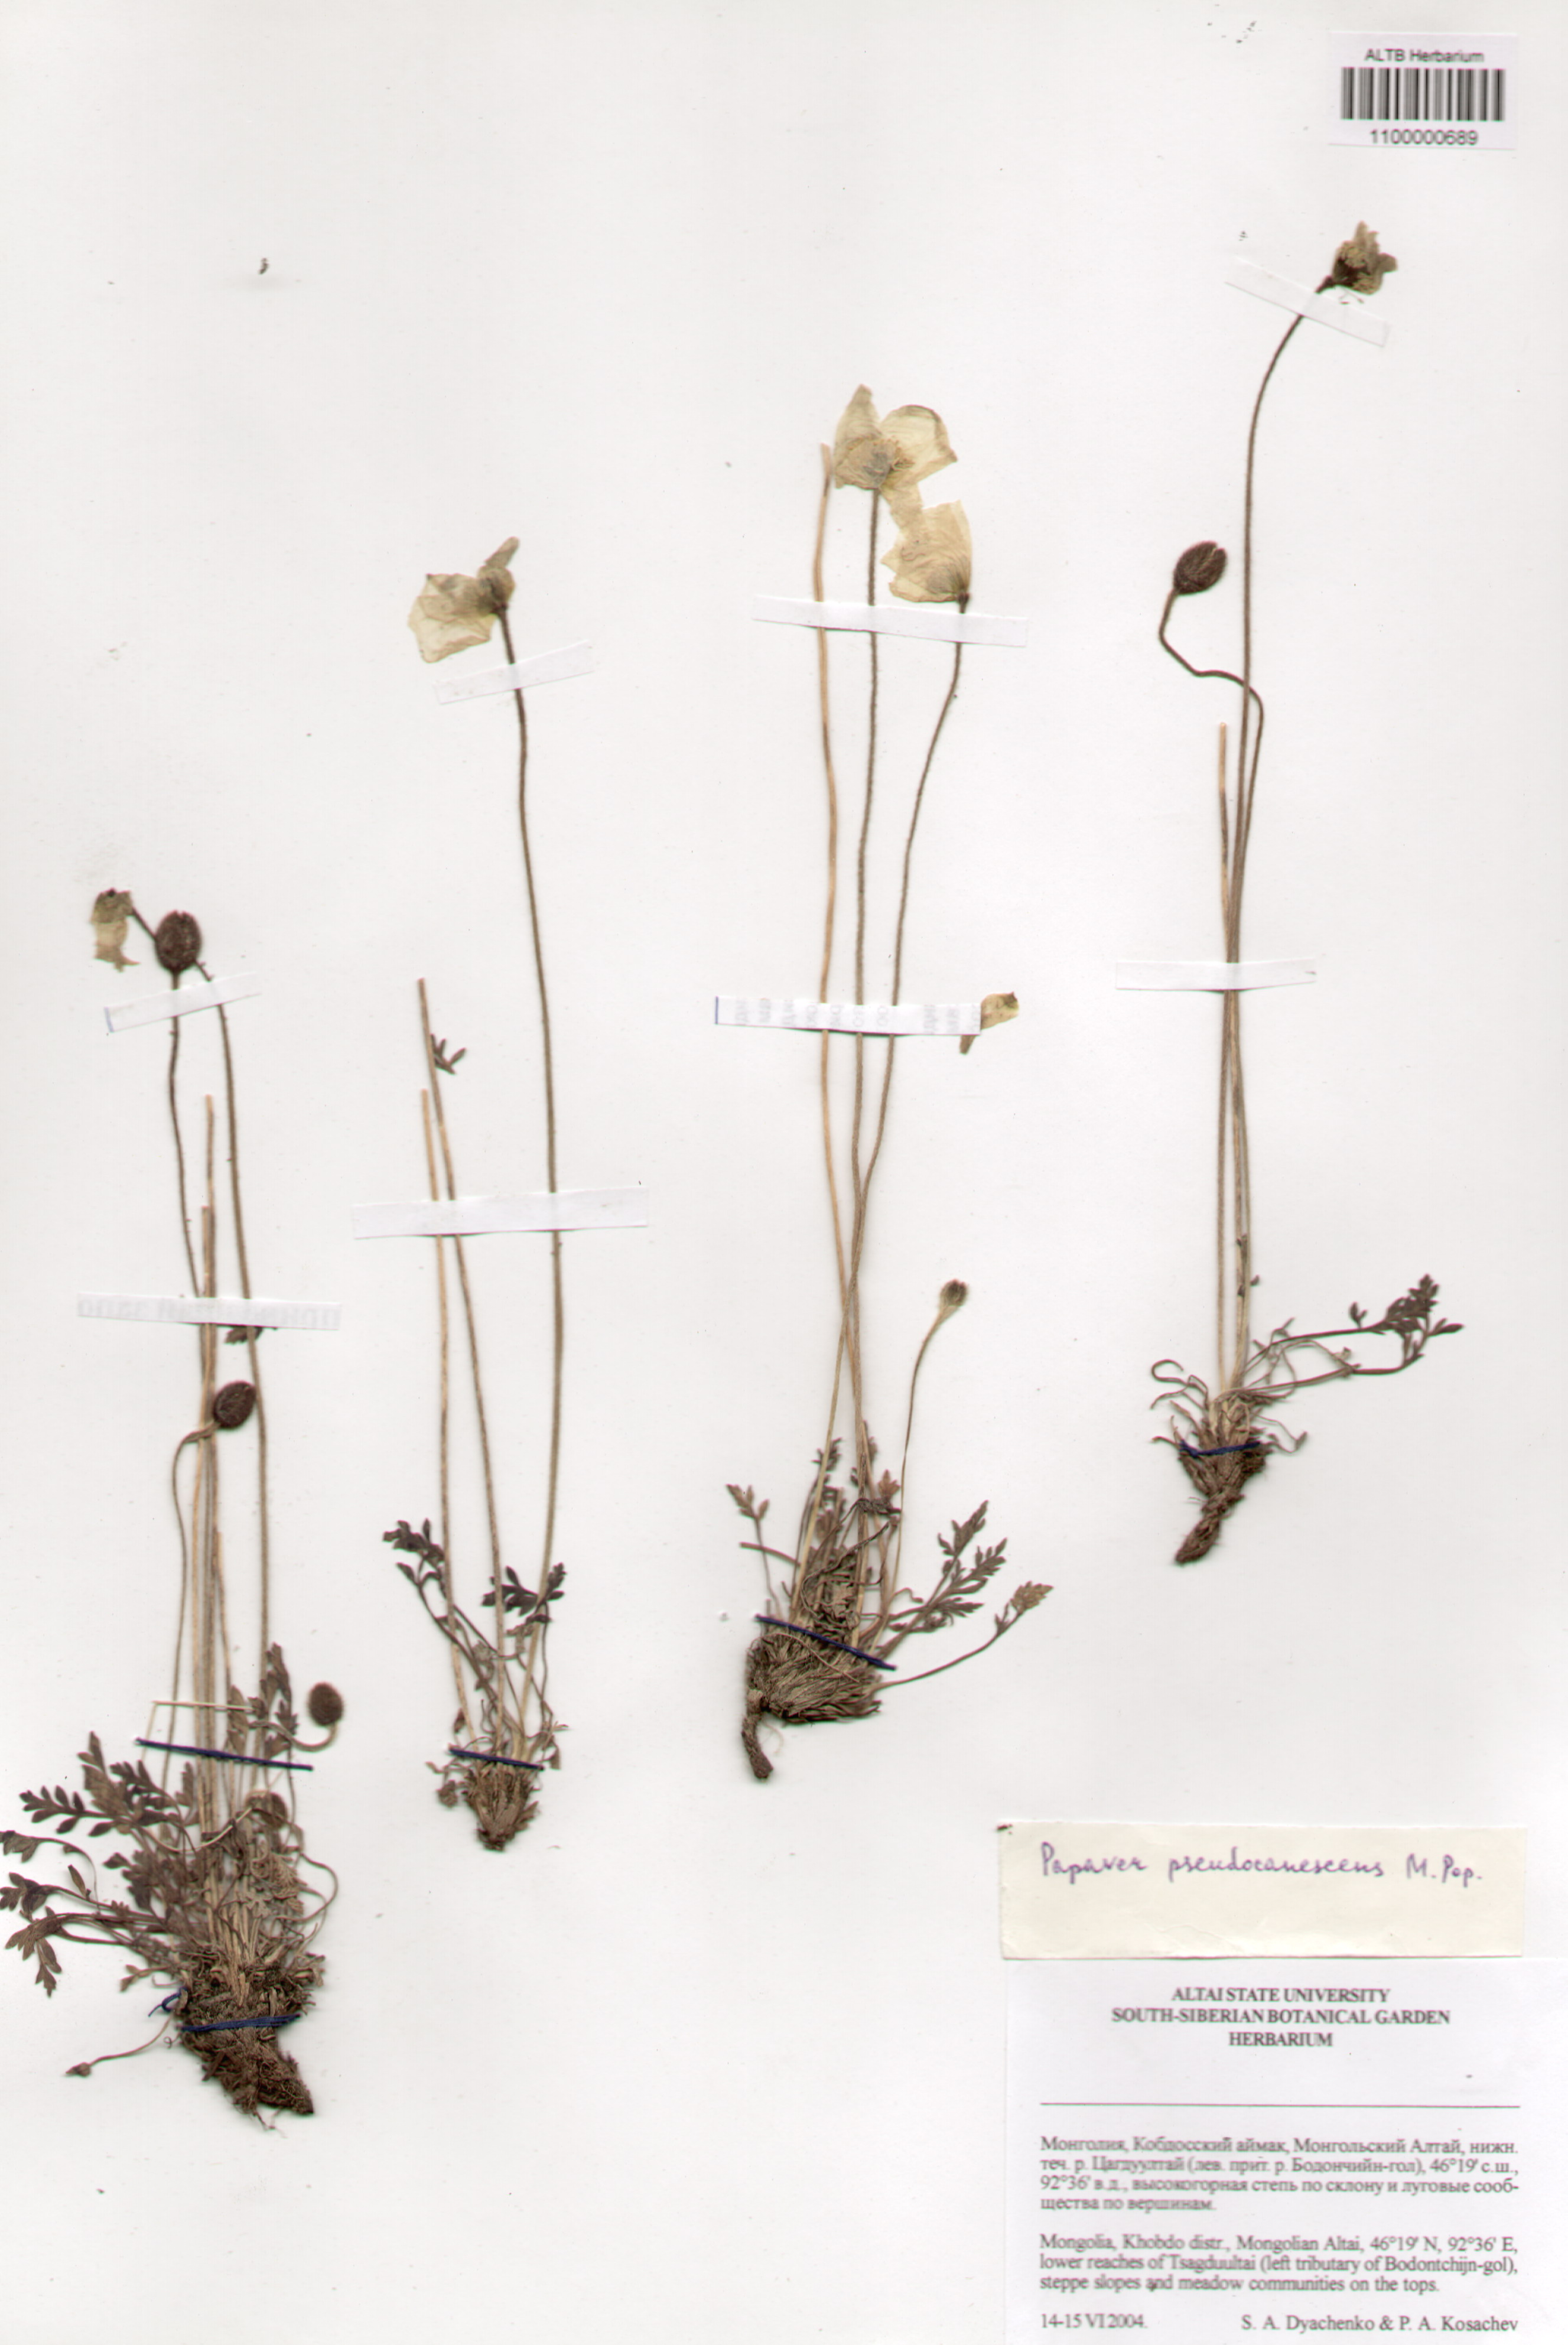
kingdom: Plantae
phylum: Tracheophyta
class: Magnoliopsida
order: Ranunculales
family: Papaveraceae
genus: Papaver
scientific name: Papaver canescens
